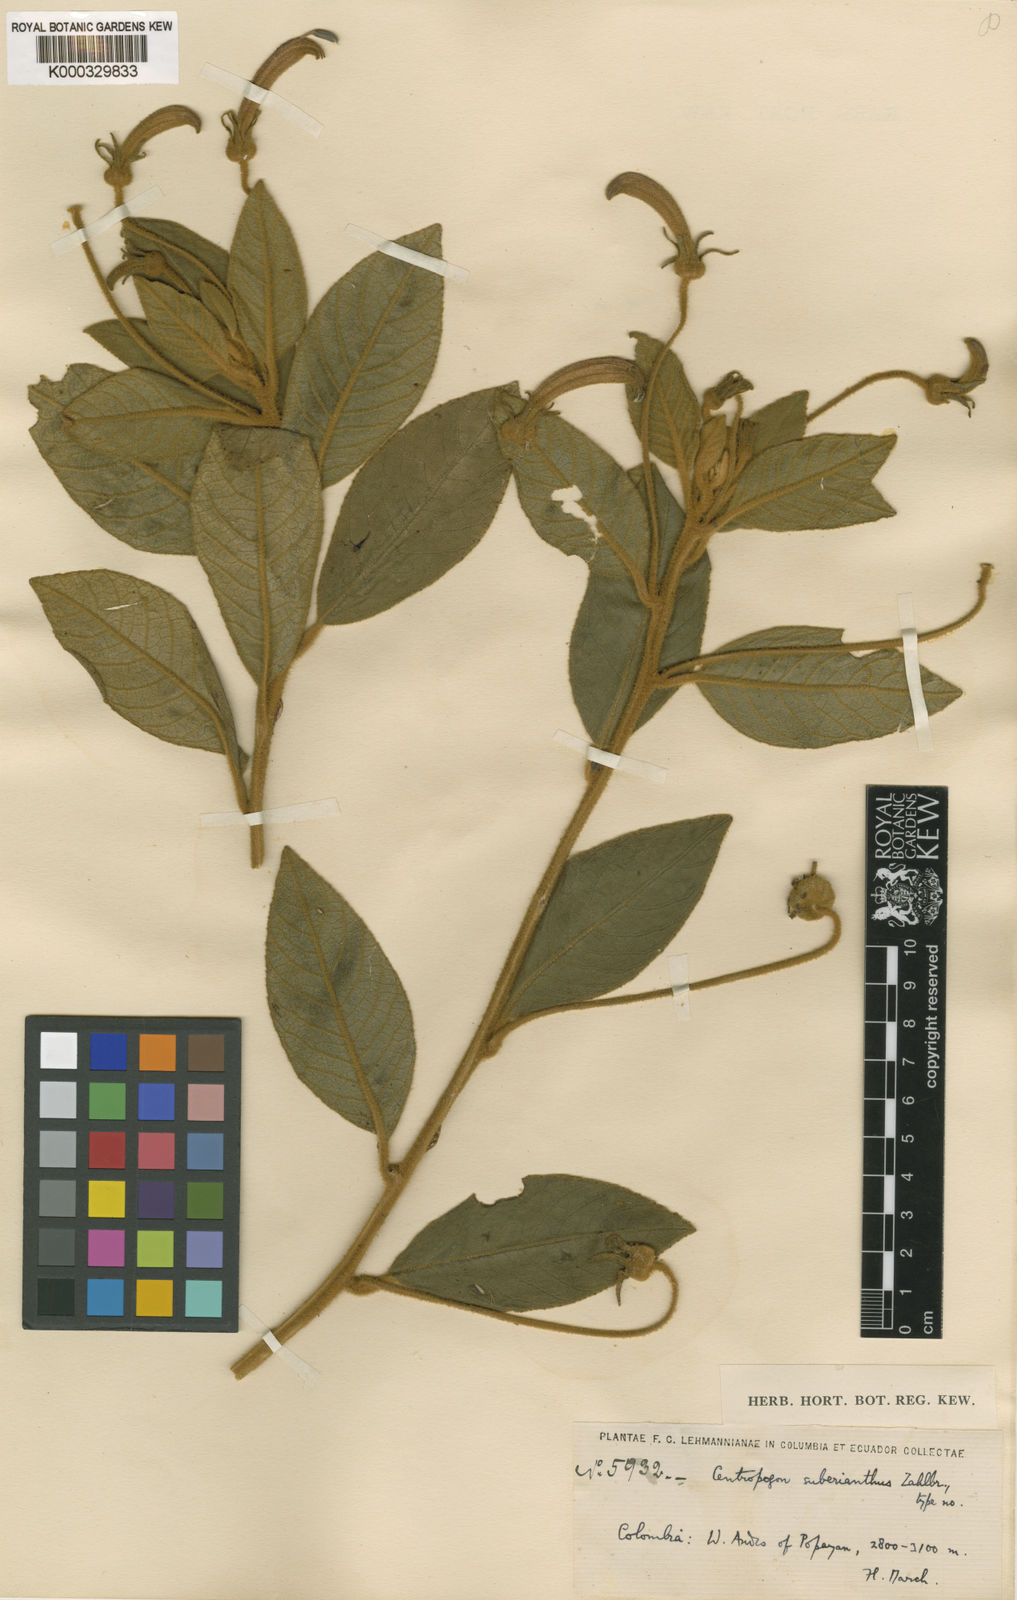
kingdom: Plantae
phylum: Tracheophyta
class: Magnoliopsida
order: Asterales
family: Campanulaceae
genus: Centropogon
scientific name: Centropogon suberianthus
